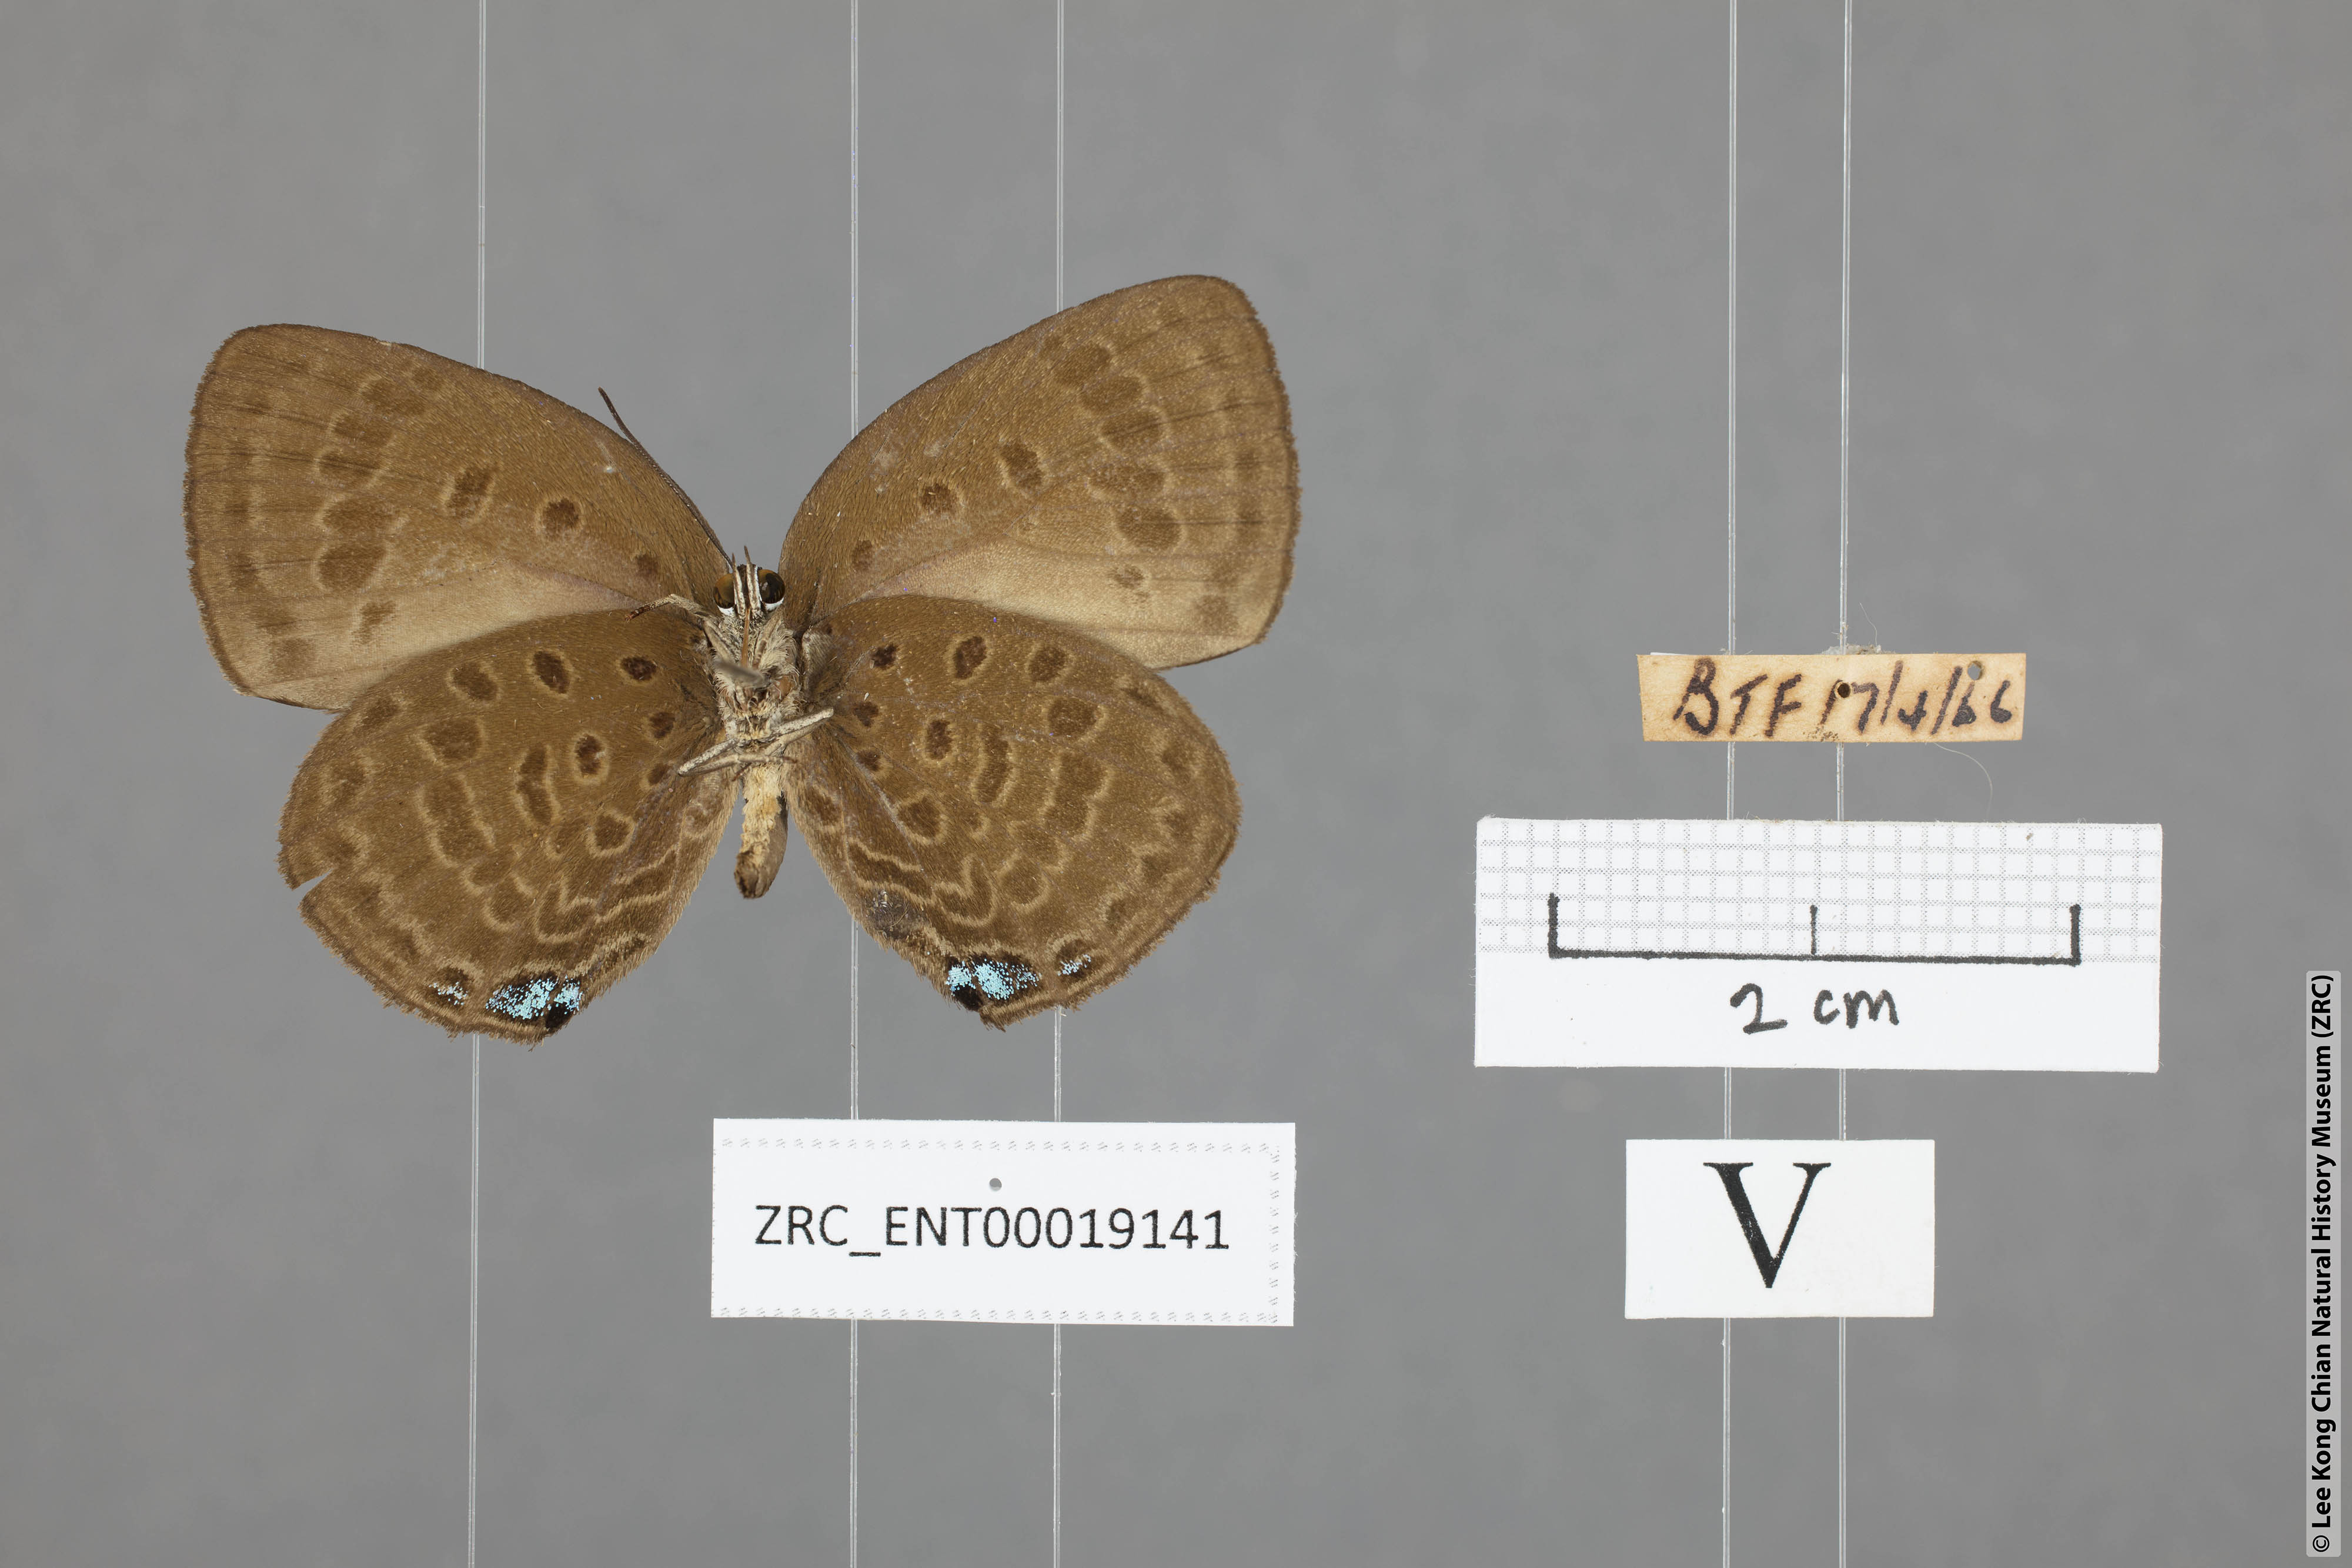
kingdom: Animalia
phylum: Arthropoda
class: Insecta
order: Lepidoptera
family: Lycaenidae
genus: Arhopala
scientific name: Arhopala amphimuta
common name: Broad yellow oakblue
